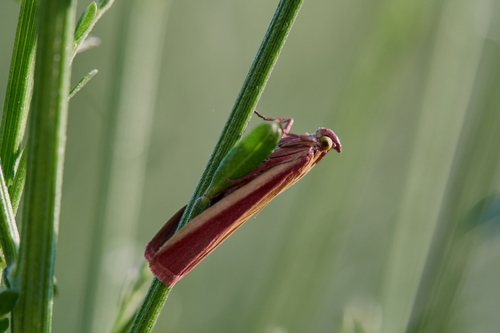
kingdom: Animalia
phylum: Arthropoda
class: Insecta
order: Lepidoptera
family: Pyralidae
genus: Oncocera
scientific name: Oncocera semirubella
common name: Rosy-striped knot-horn
